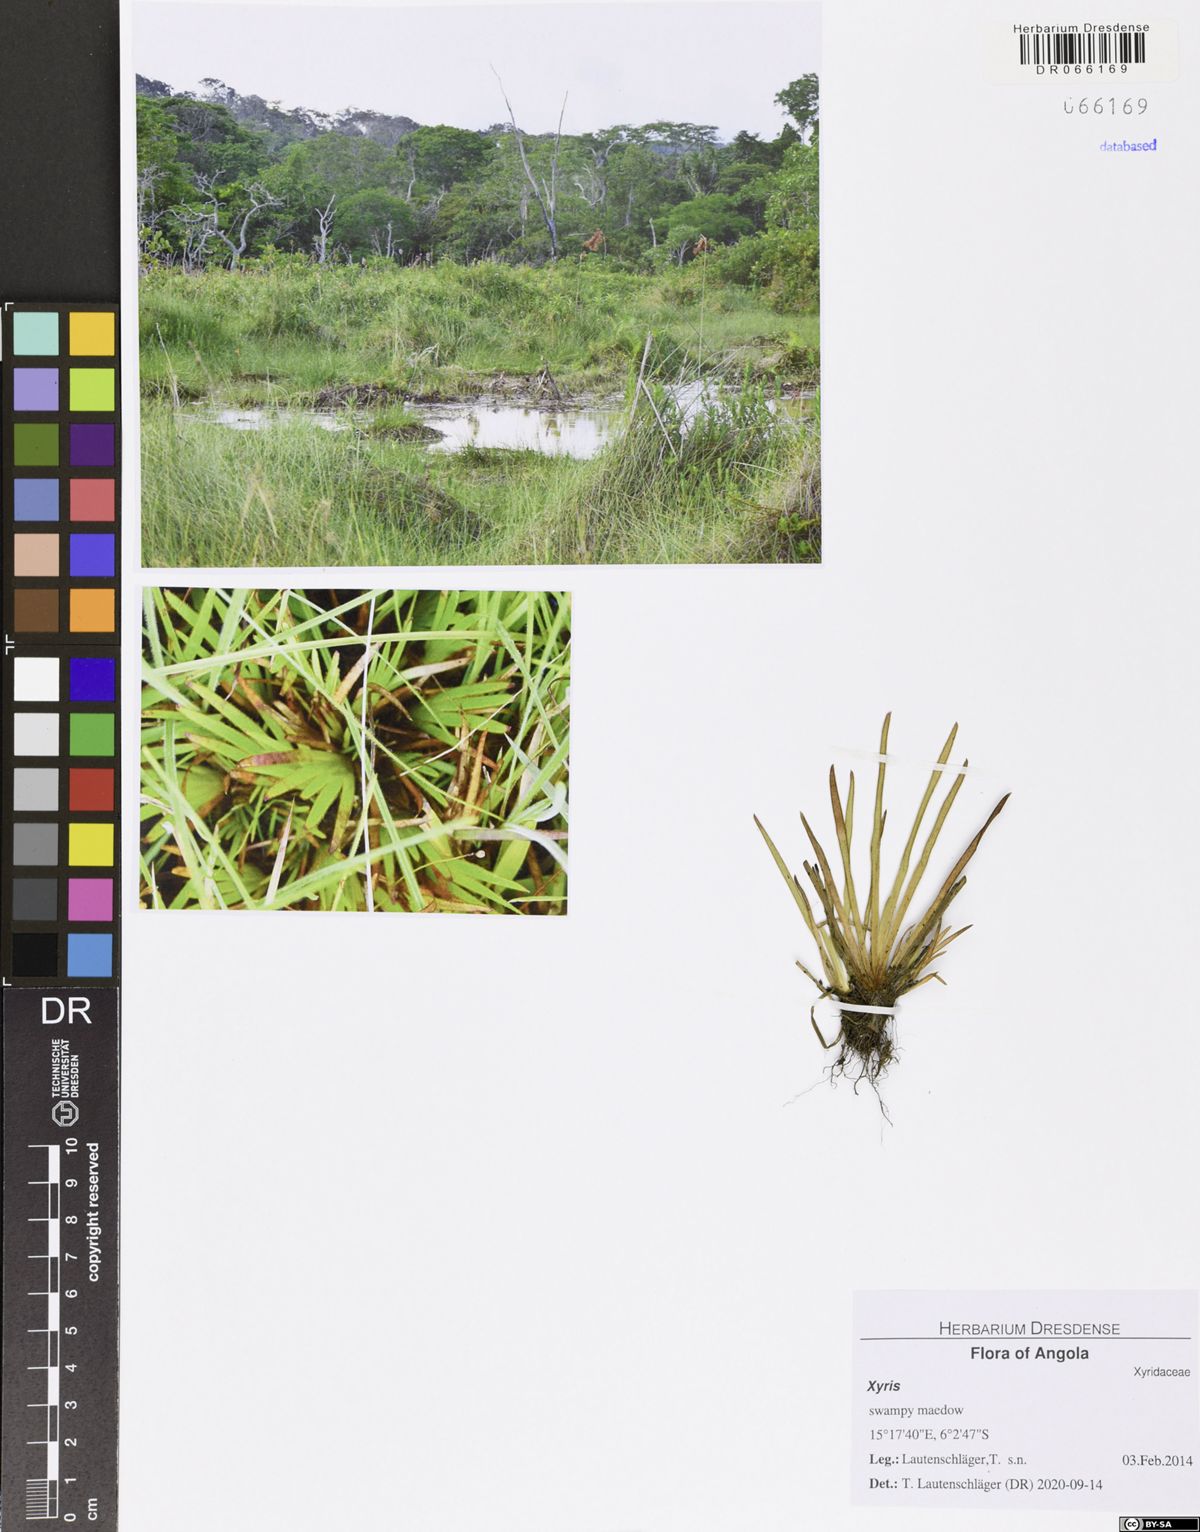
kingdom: Plantae
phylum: Tracheophyta
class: Liliopsida
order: Poales
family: Xyridaceae
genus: Xyris
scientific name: Xyris
